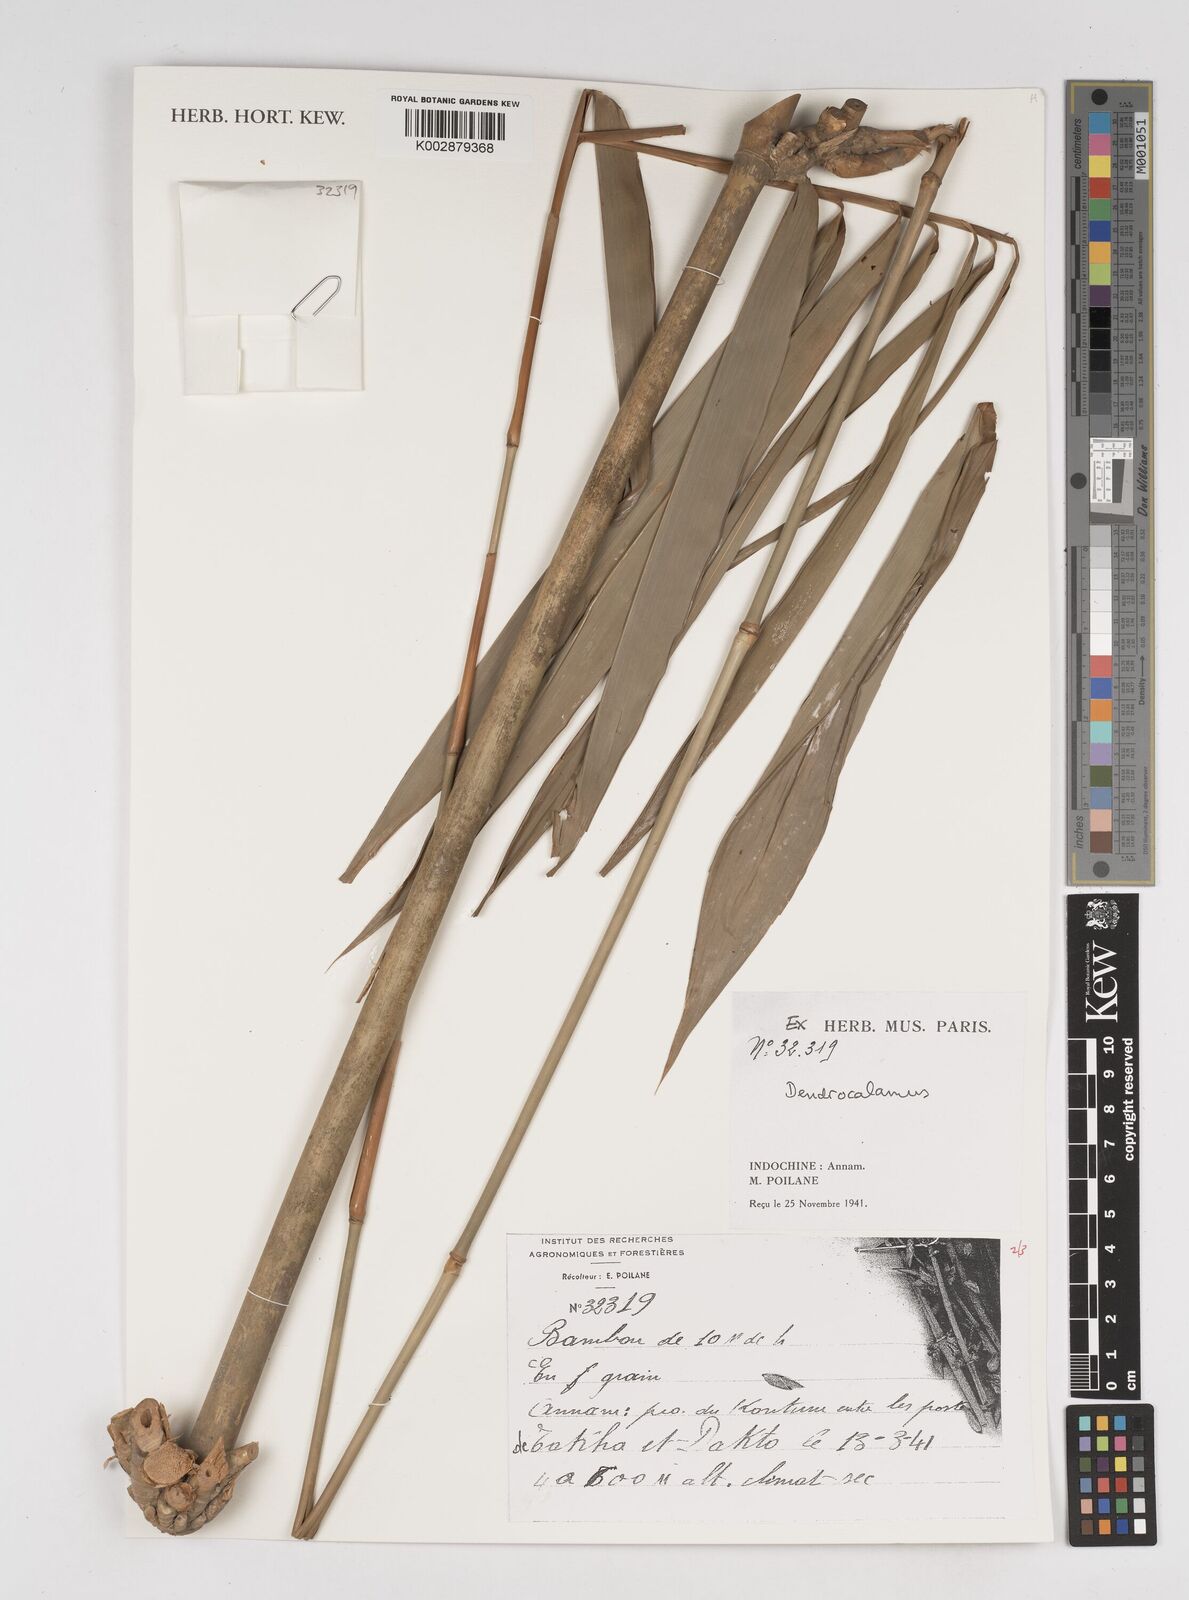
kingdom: Plantae
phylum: Tracheophyta
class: Liliopsida
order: Poales
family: Poaceae
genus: Dendrocalamus
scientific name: Dendrocalamus
